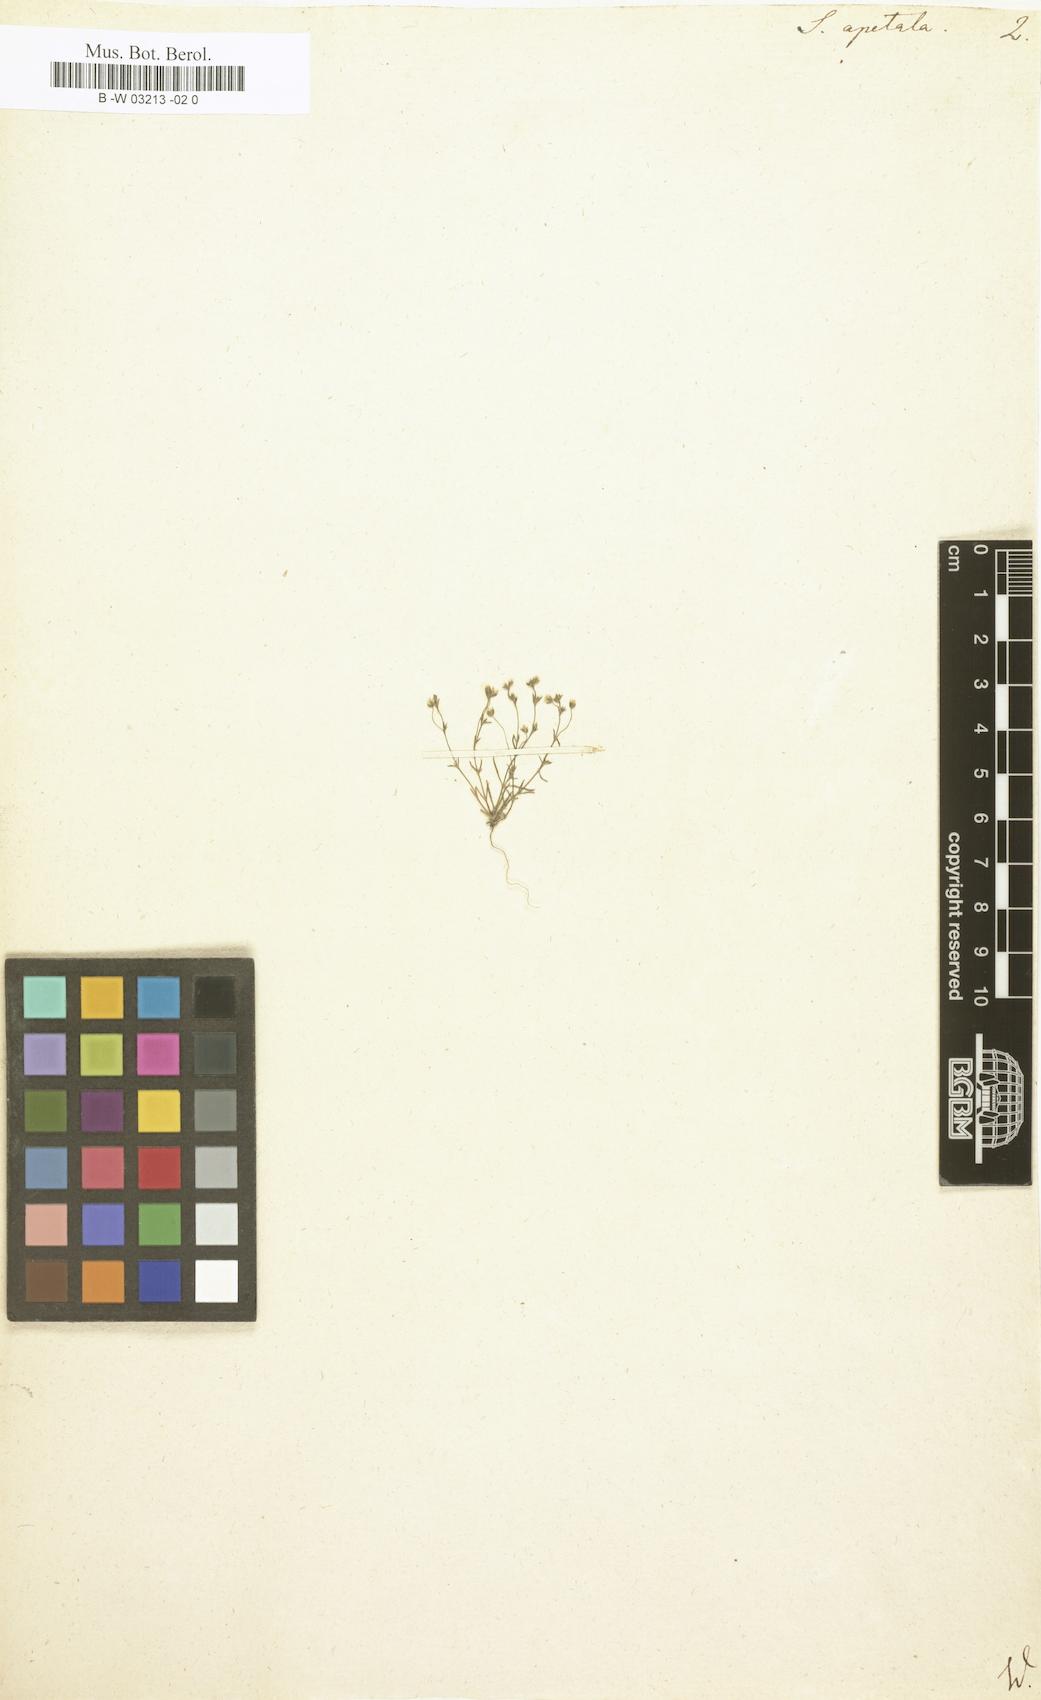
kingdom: Plantae
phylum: Tracheophyta
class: Magnoliopsida
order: Caryophyllales
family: Caryophyllaceae
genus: Sagina
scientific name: Sagina apetala
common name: Annual pearlwort
